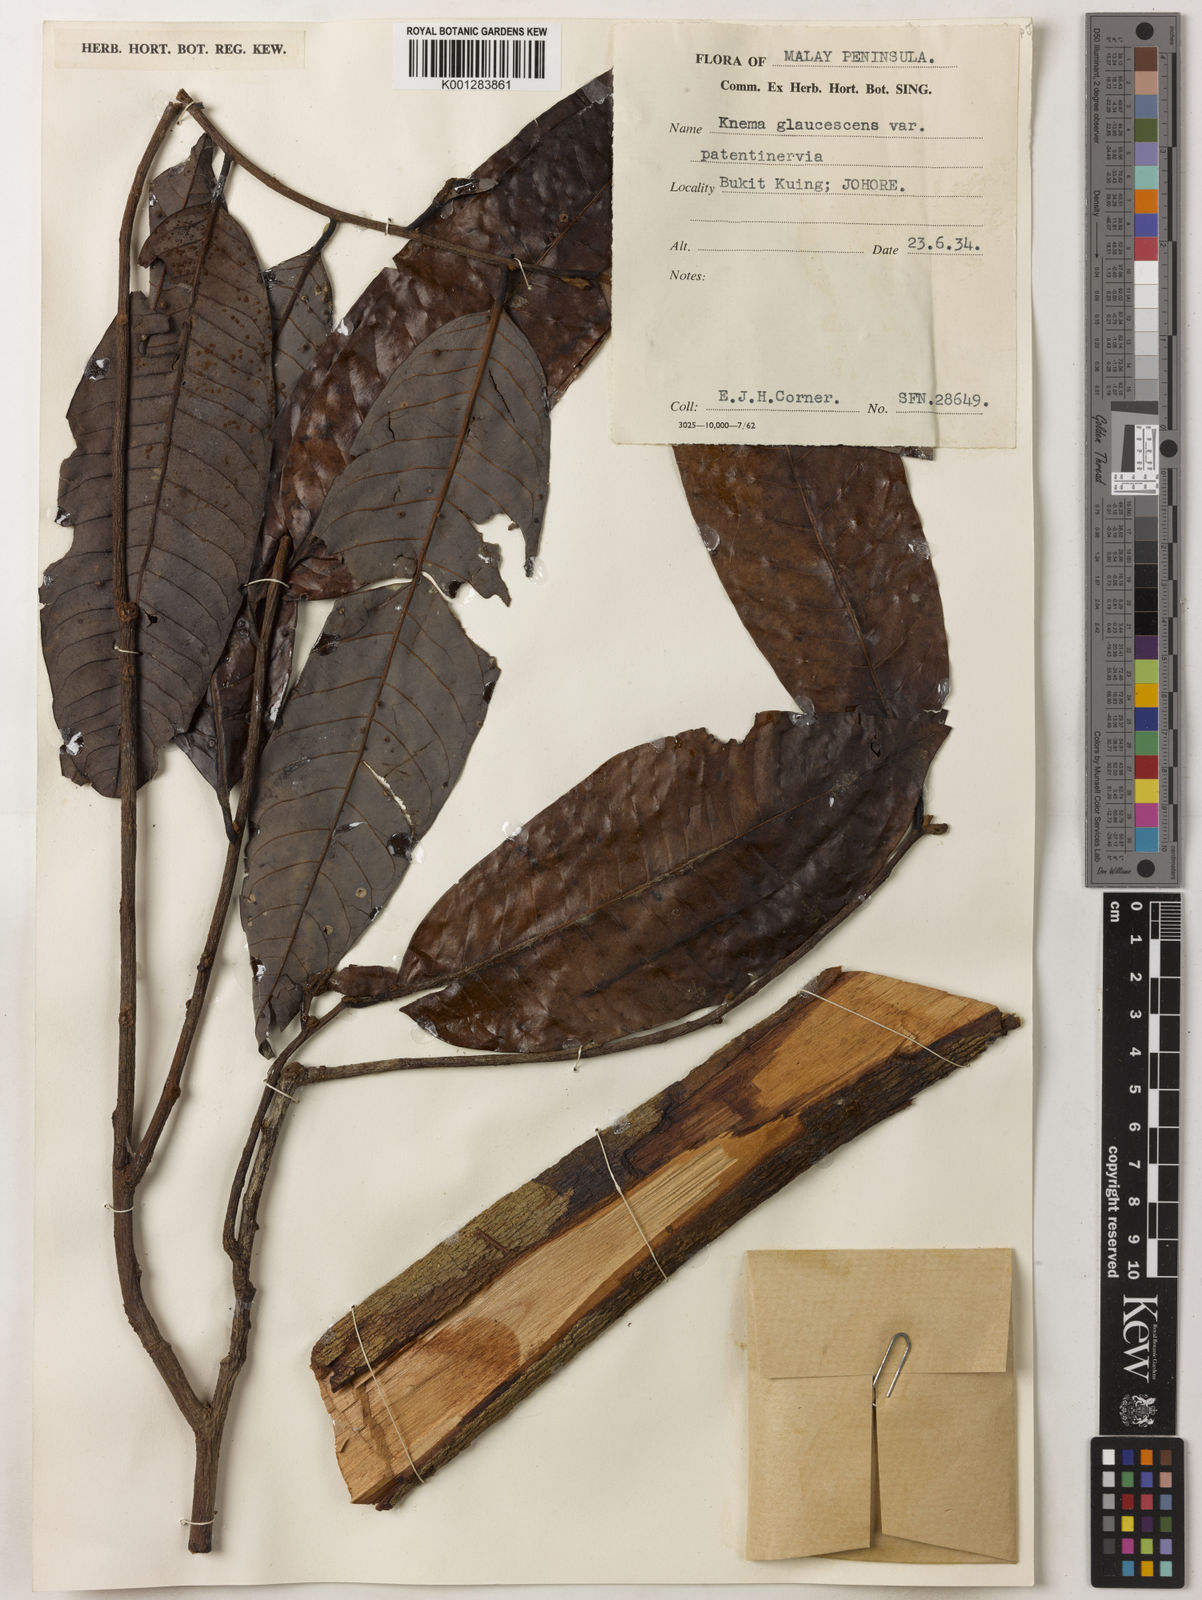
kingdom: Plantae
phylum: Tracheophyta
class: Magnoliopsida
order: Magnoliales
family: Myristicaceae
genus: Knema
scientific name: Knema
